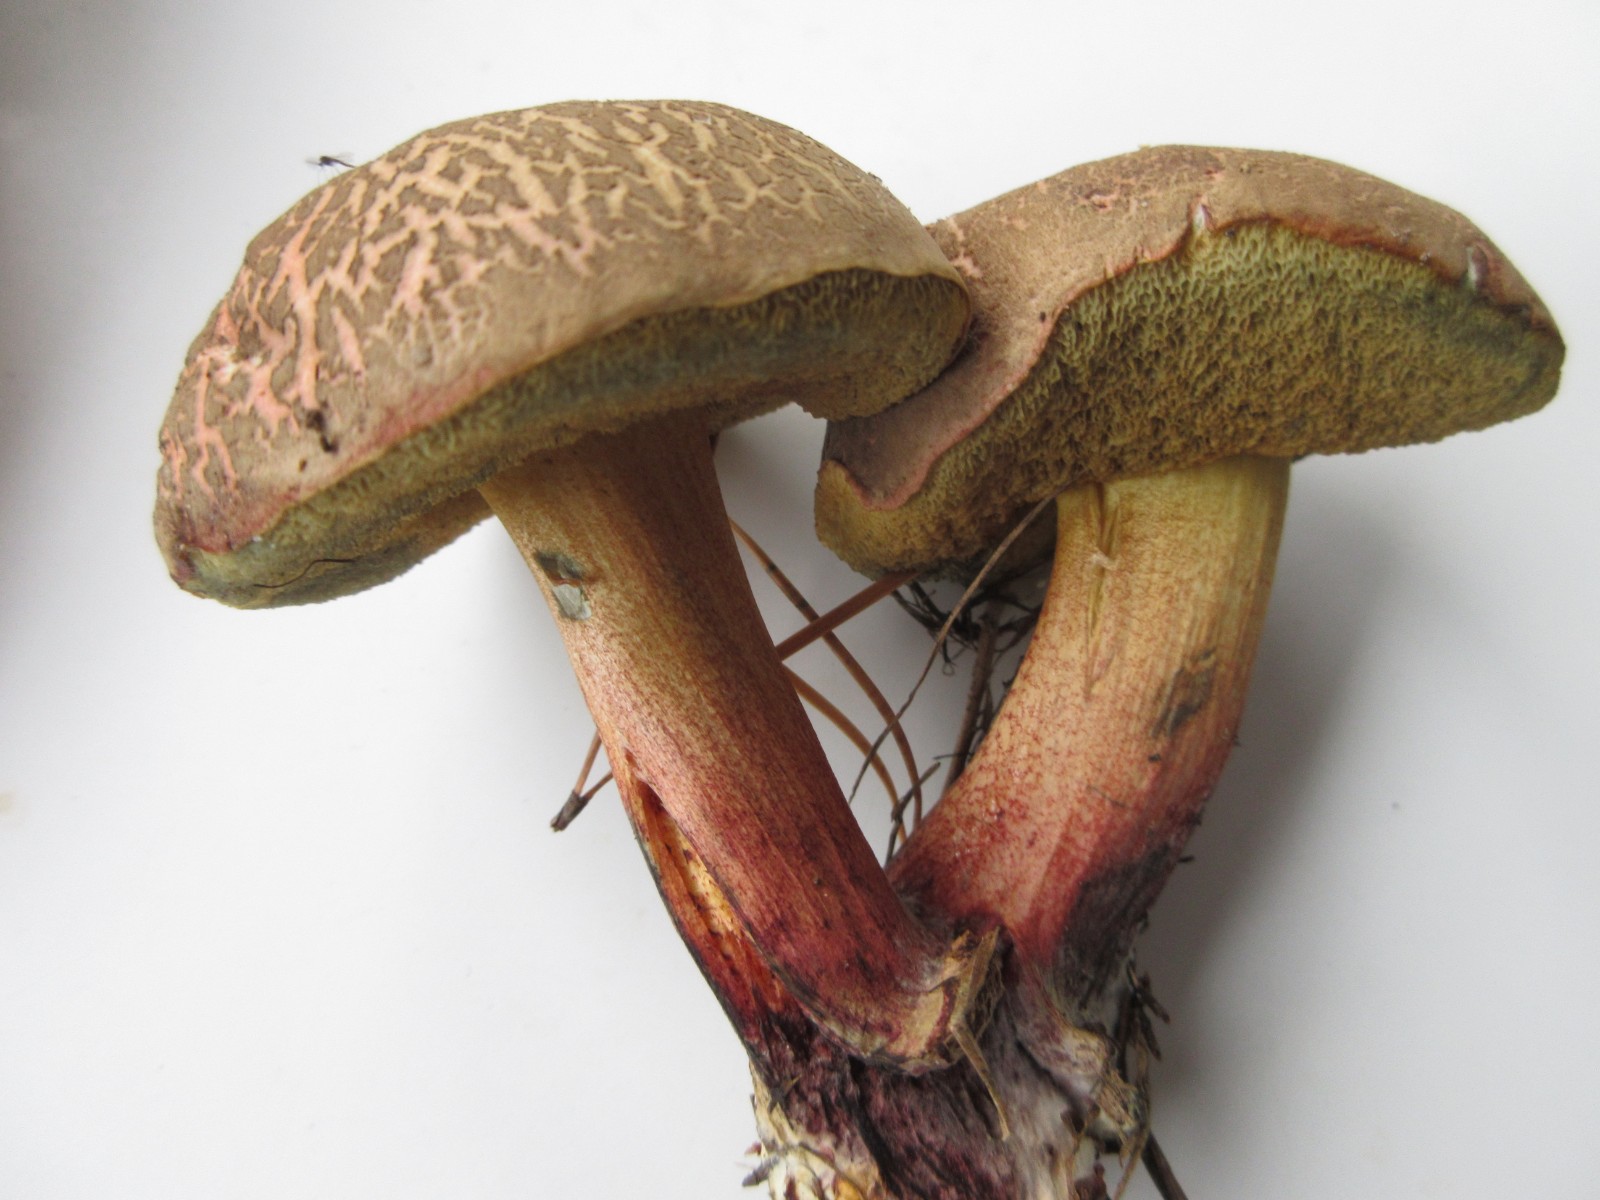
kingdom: Fungi
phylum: Basidiomycota
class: Agaricomycetes
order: Boletales
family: Boletaceae
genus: Xerocomellus
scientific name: Xerocomellus chrysenteron
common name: rødsprukken rørhat
